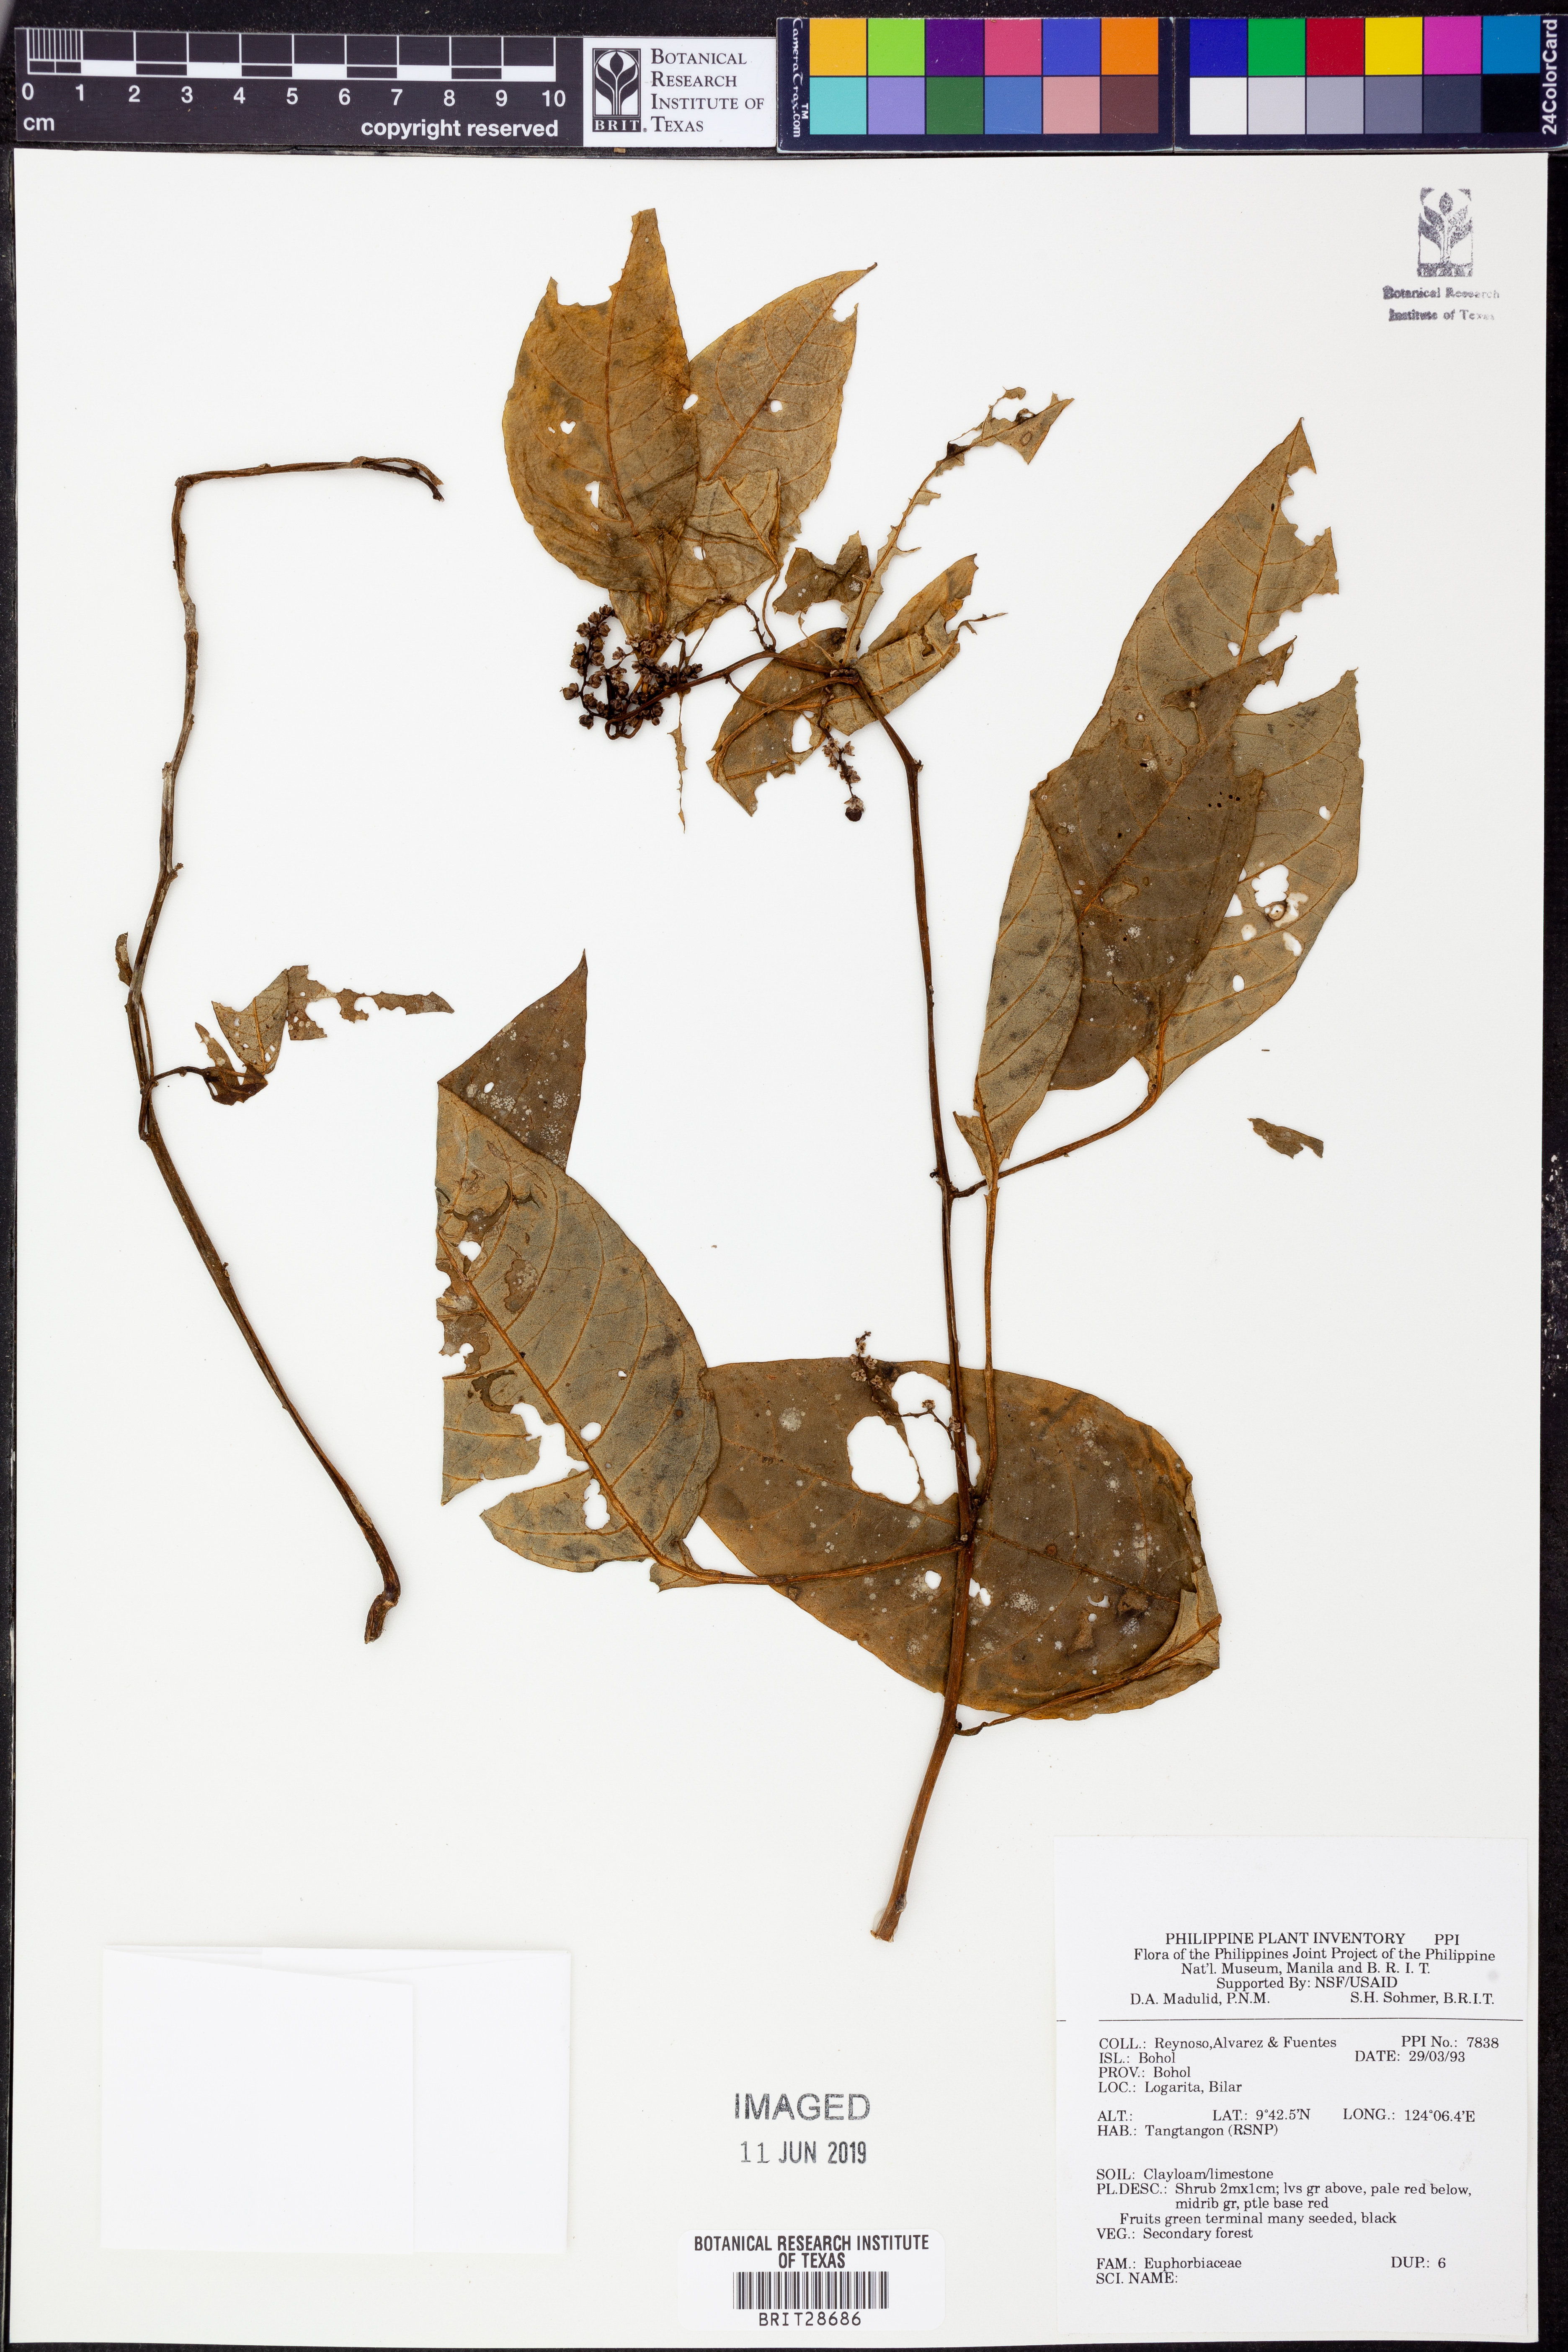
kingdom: Plantae
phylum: Tracheophyta
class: Magnoliopsida
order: Malpighiales
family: Euphorbiaceae
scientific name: Euphorbiaceae
